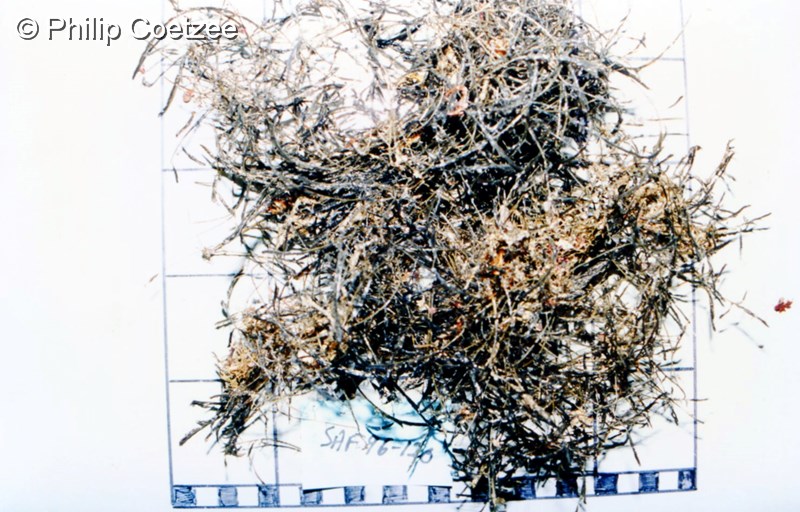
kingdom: Animalia
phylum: Cnidaria
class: Hydrozoa
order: Leptothecata
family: Aglaopheniidae
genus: Macrorhynchia
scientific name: Macrorhynchia filamentosa
